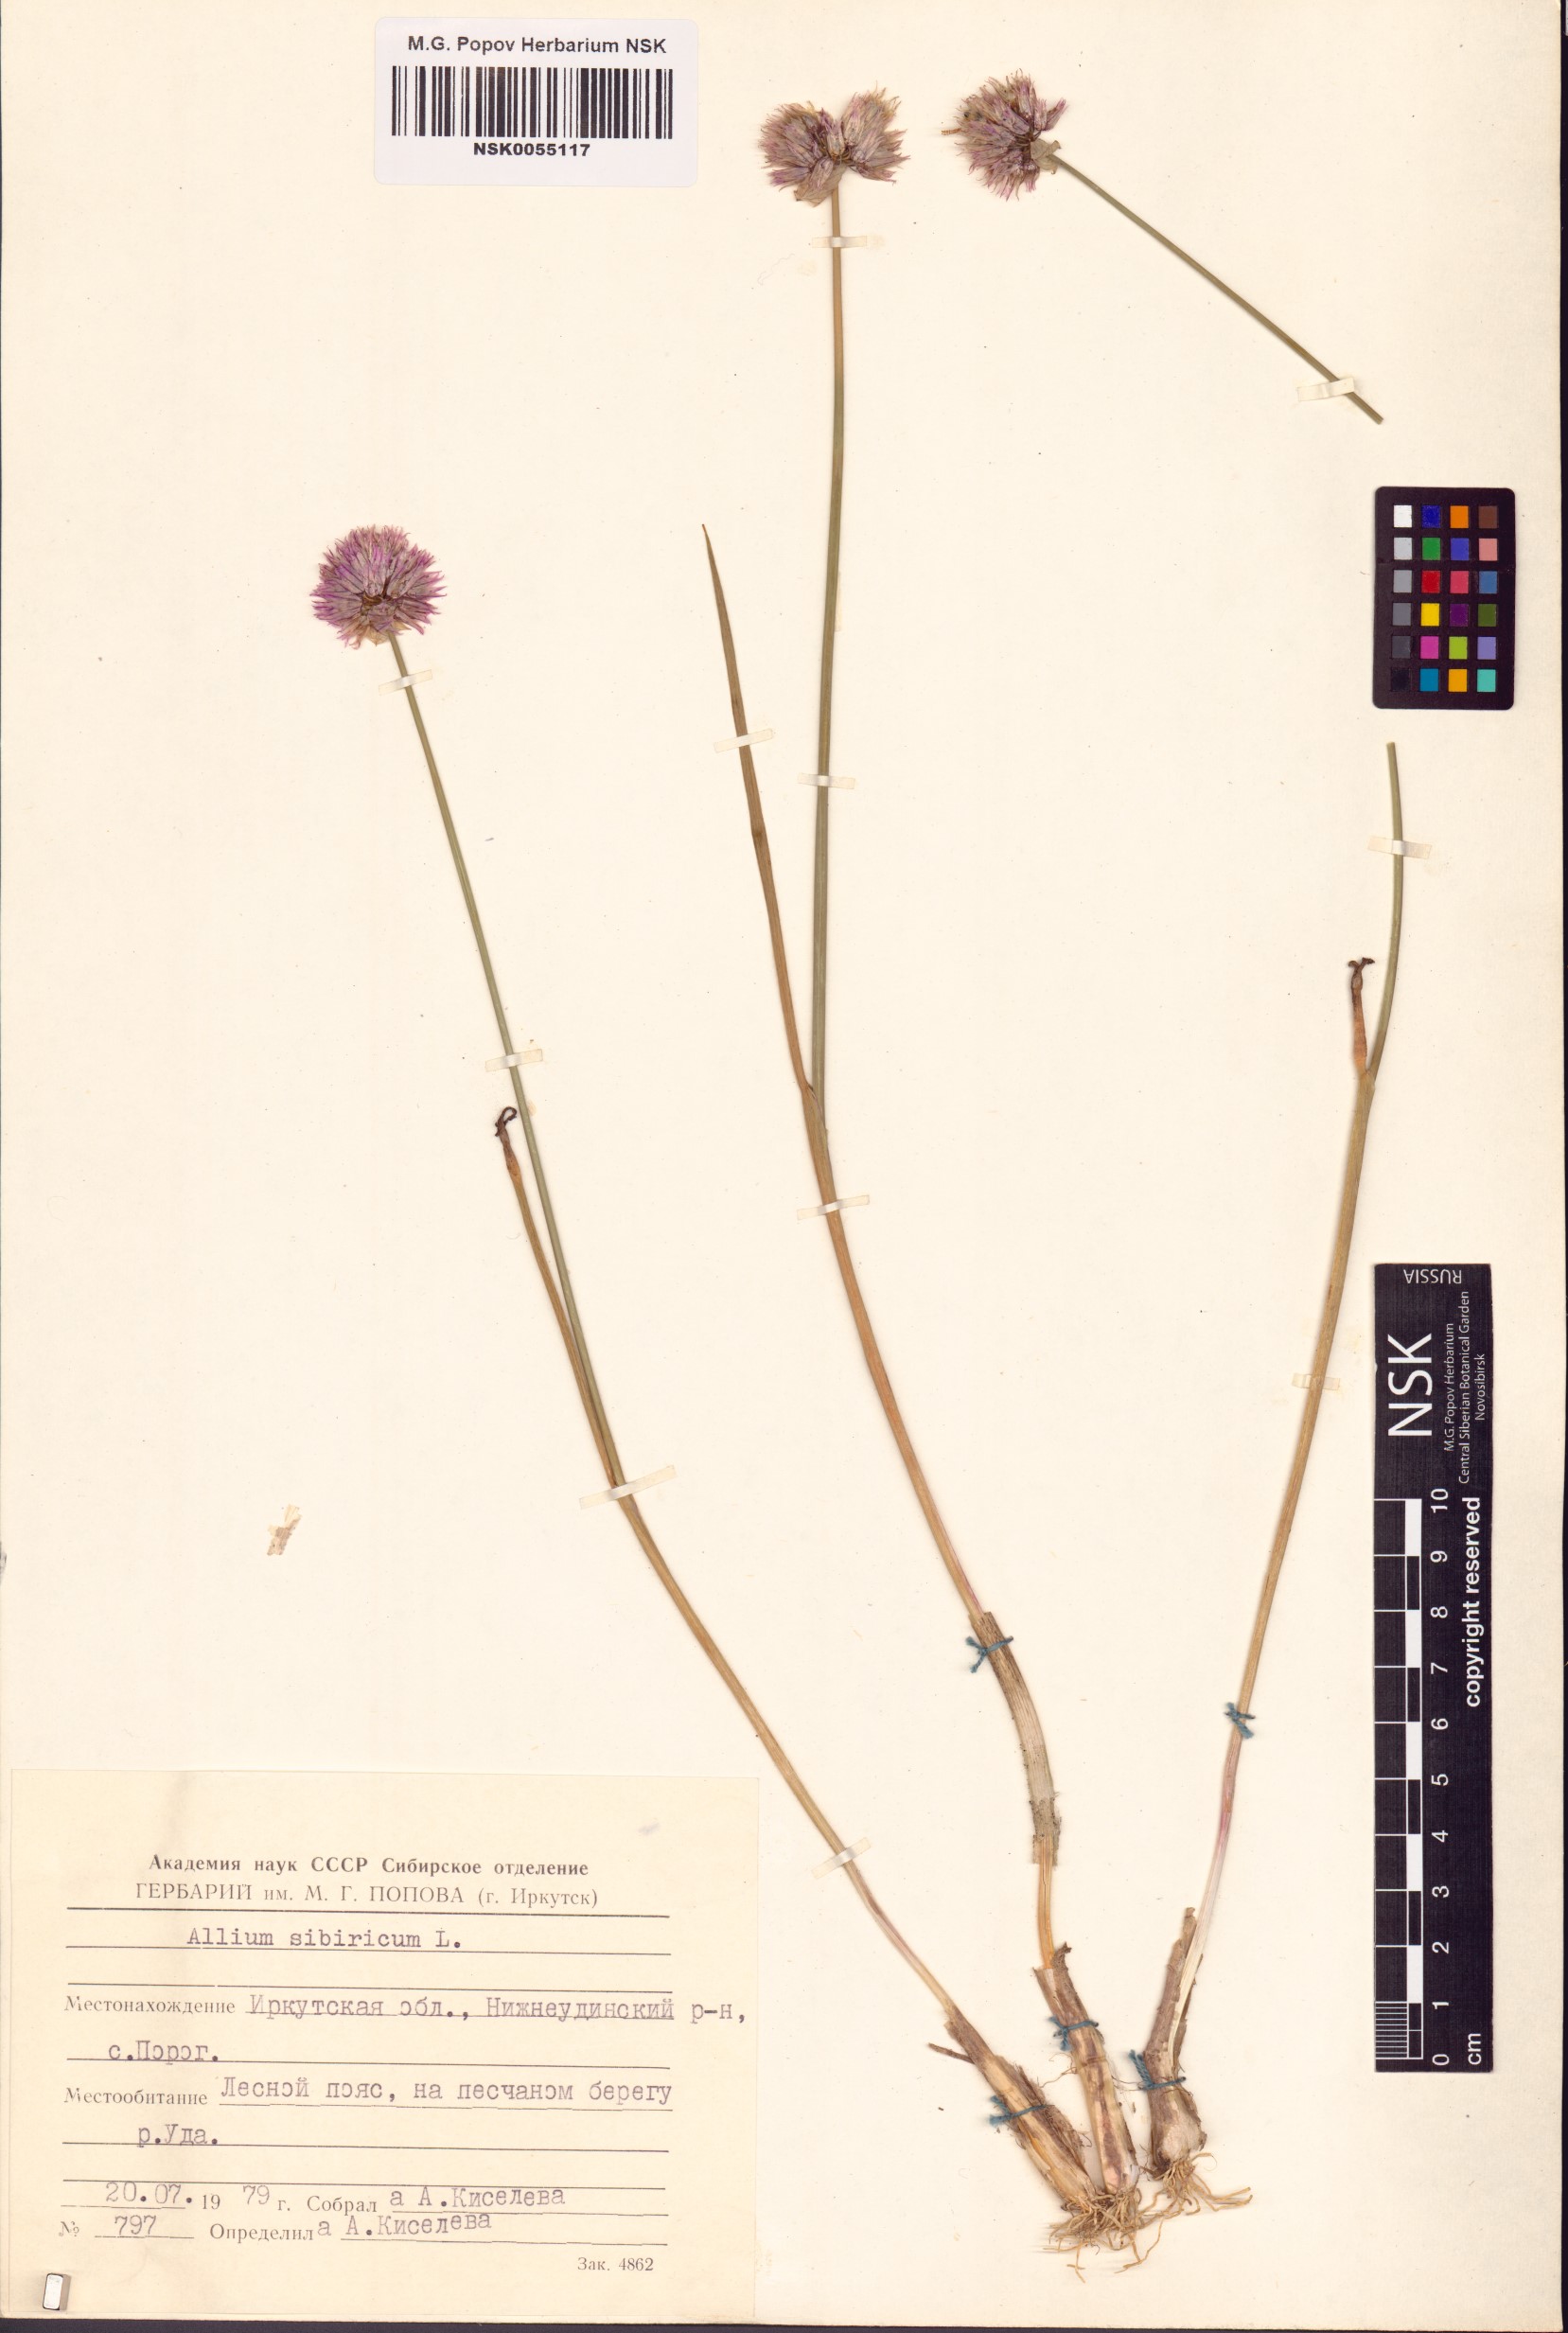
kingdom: Plantae
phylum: Tracheophyta
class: Liliopsida
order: Asparagales
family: Amaryllidaceae
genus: Allium
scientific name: Allium schoenoprasum
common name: Chives
